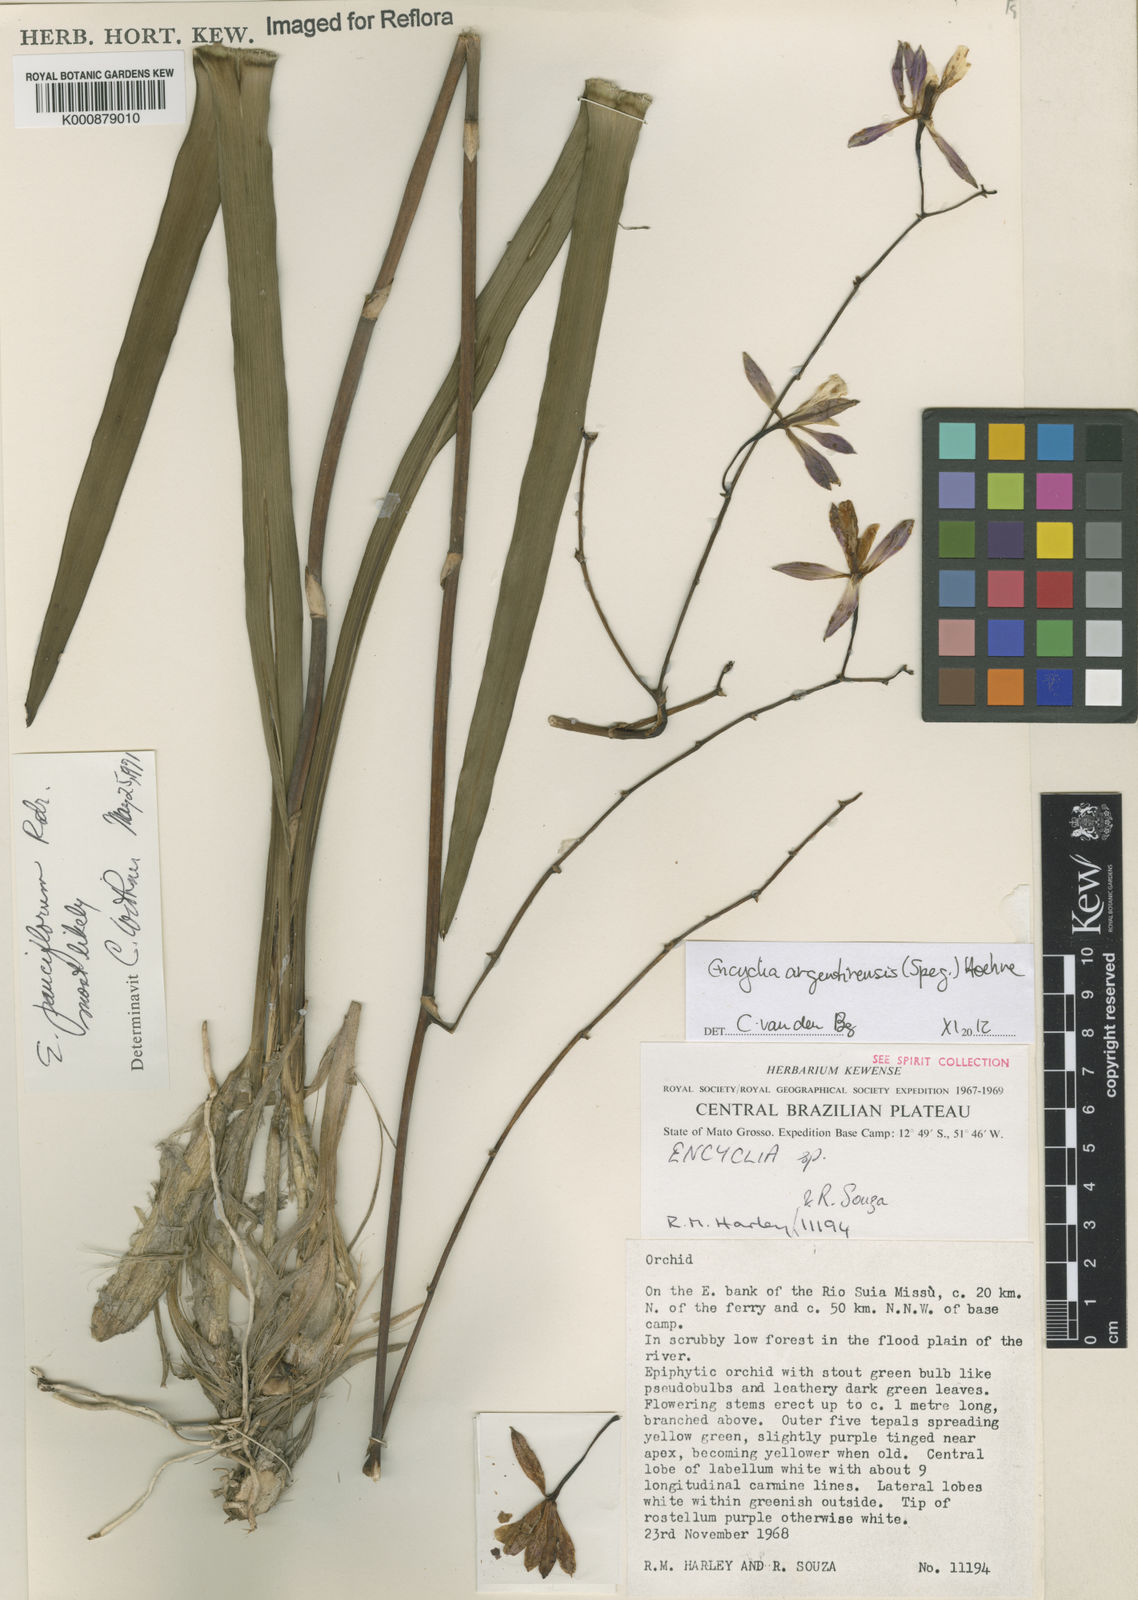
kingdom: Plantae
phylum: Tracheophyta
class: Liliopsida
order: Asparagales
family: Orchidaceae
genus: Encyclia
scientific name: Encyclia argentinensis
